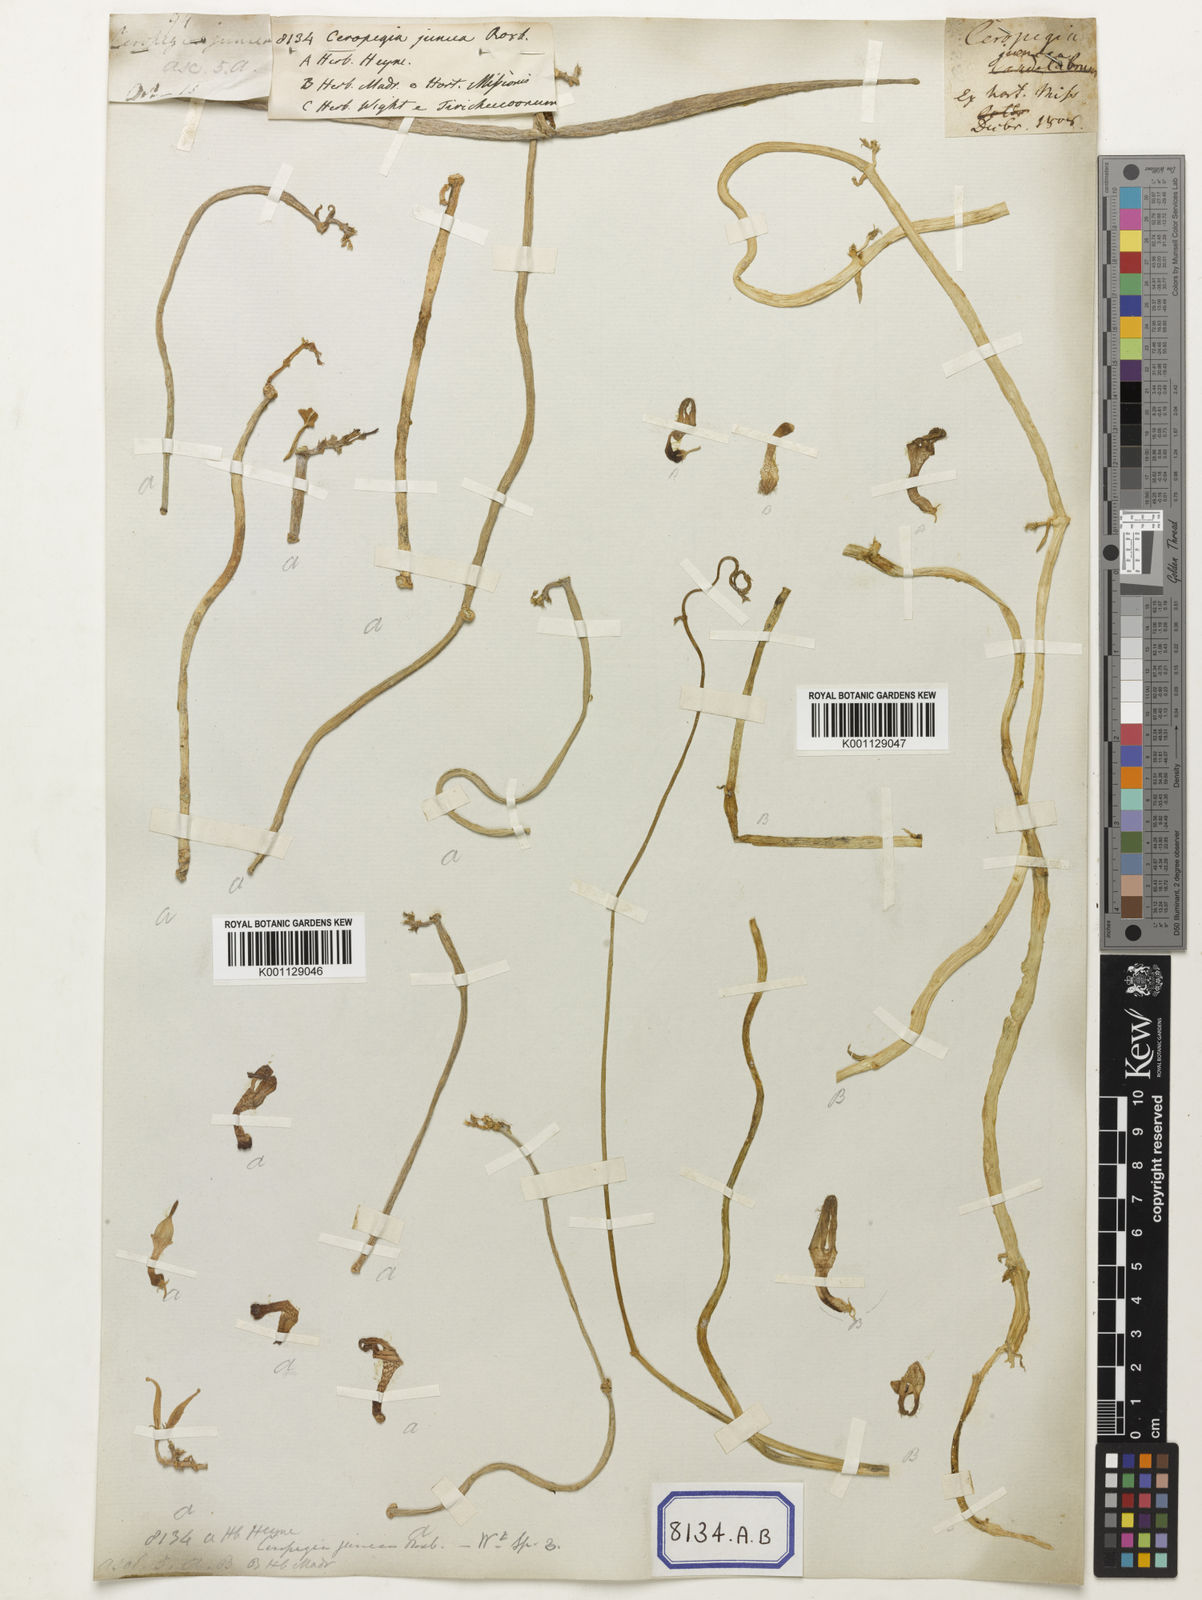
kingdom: Plantae
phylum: Tracheophyta
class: Magnoliopsida
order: Gentianales
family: Apocynaceae
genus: Ceropegia
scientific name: Ceropegia juncea
